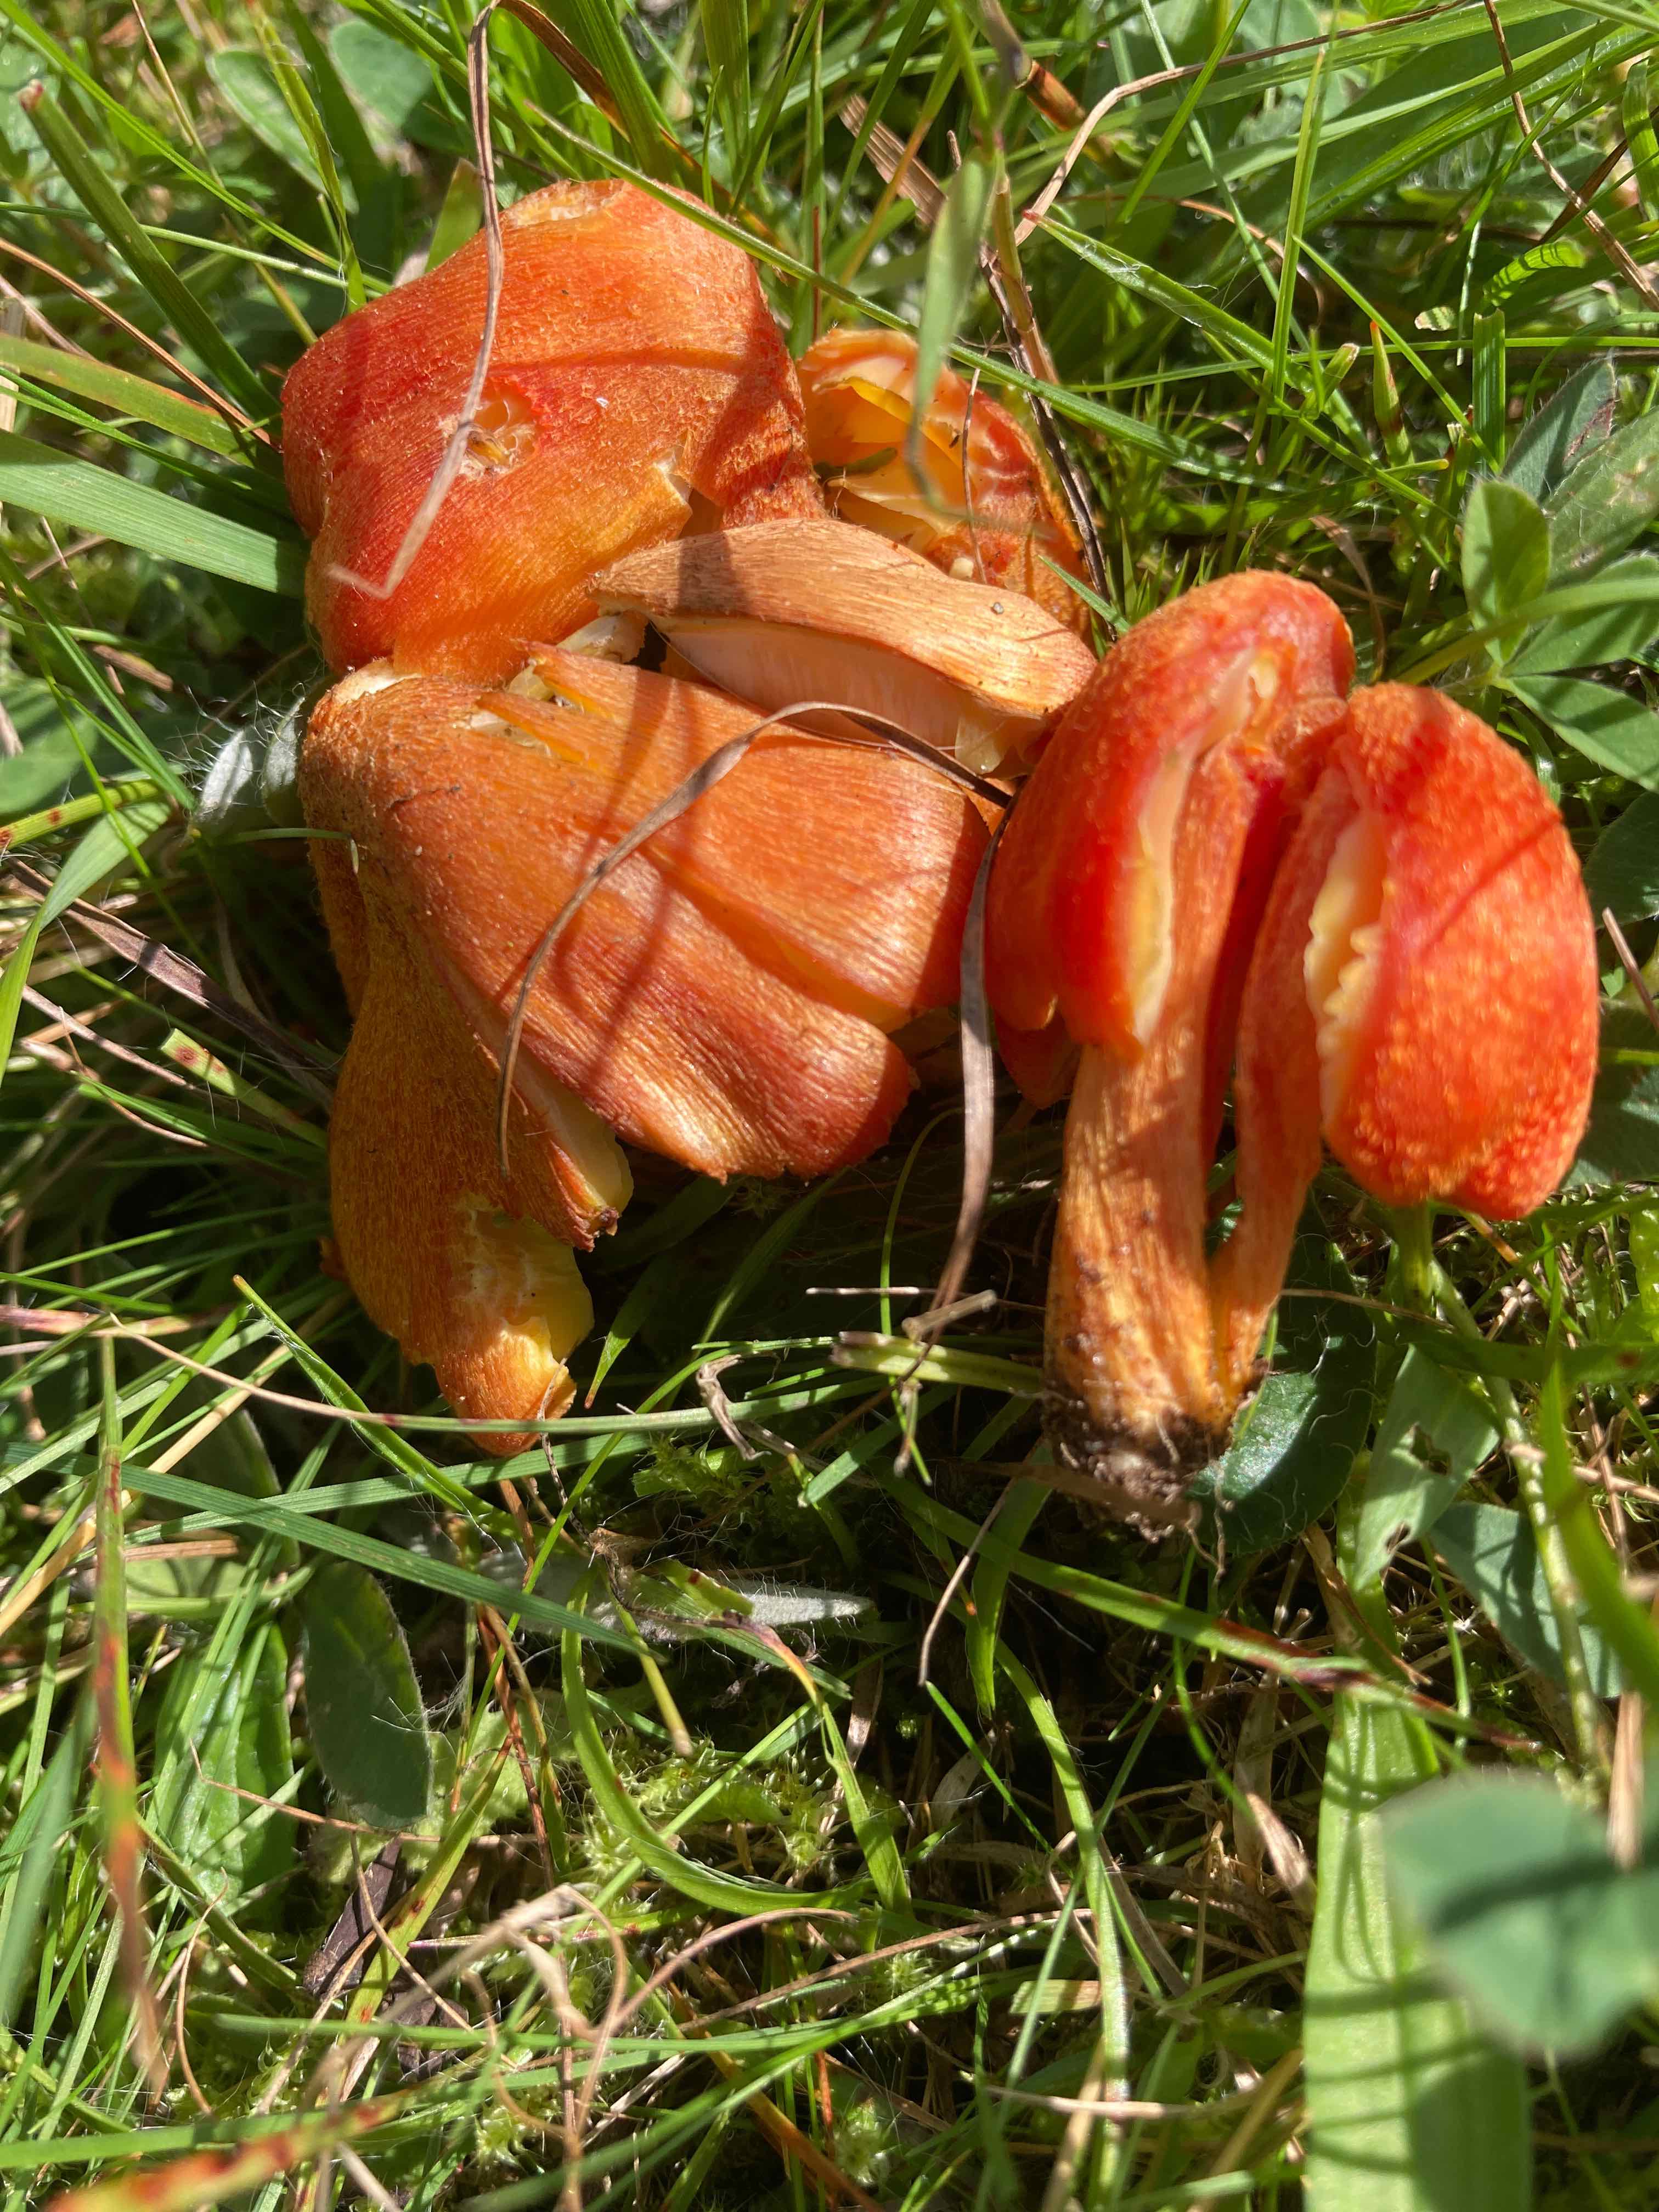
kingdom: Fungi
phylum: Basidiomycota
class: Agaricomycetes
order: Agaricales
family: Hygrophoraceae
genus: Hygrocybe
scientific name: Hygrocybe intermedia
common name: trævlet vokshat
